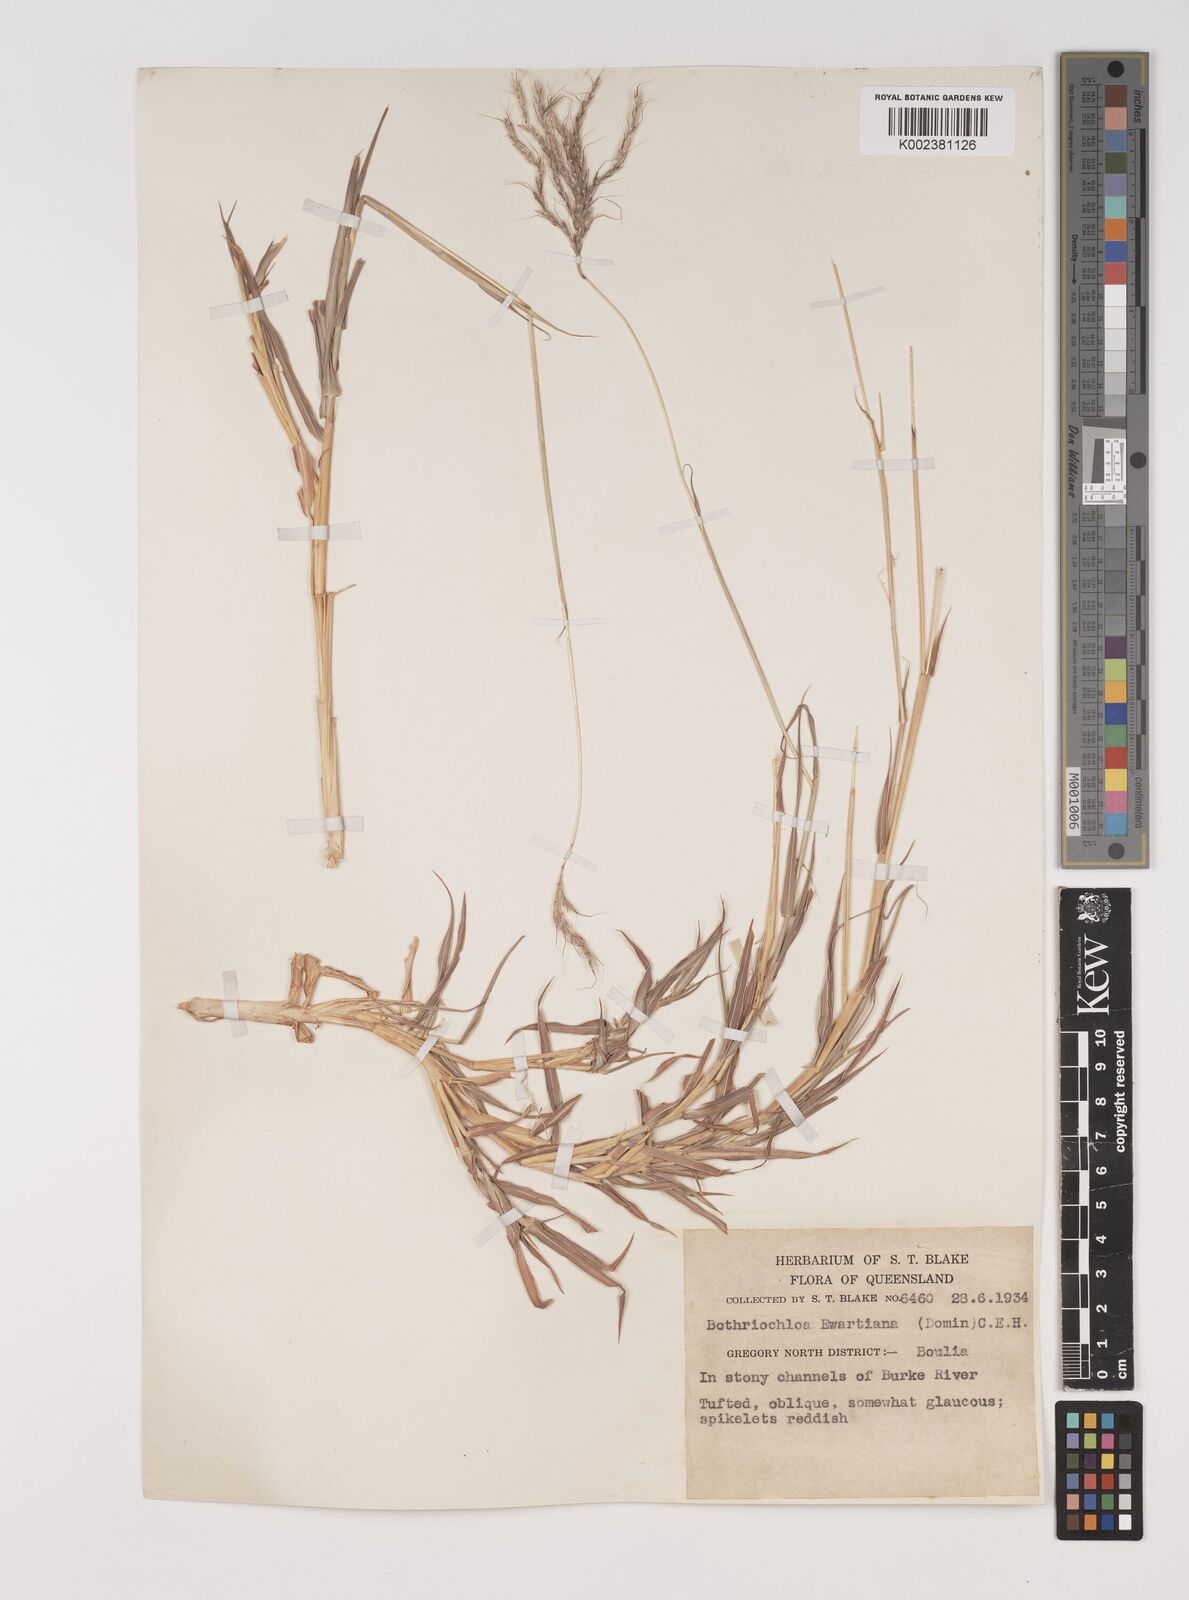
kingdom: Plantae
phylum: Tracheophyta
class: Liliopsida
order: Poales
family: Poaceae
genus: Bothriochloa
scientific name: Bothriochloa ewartiana
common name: Desert-bluegrass
